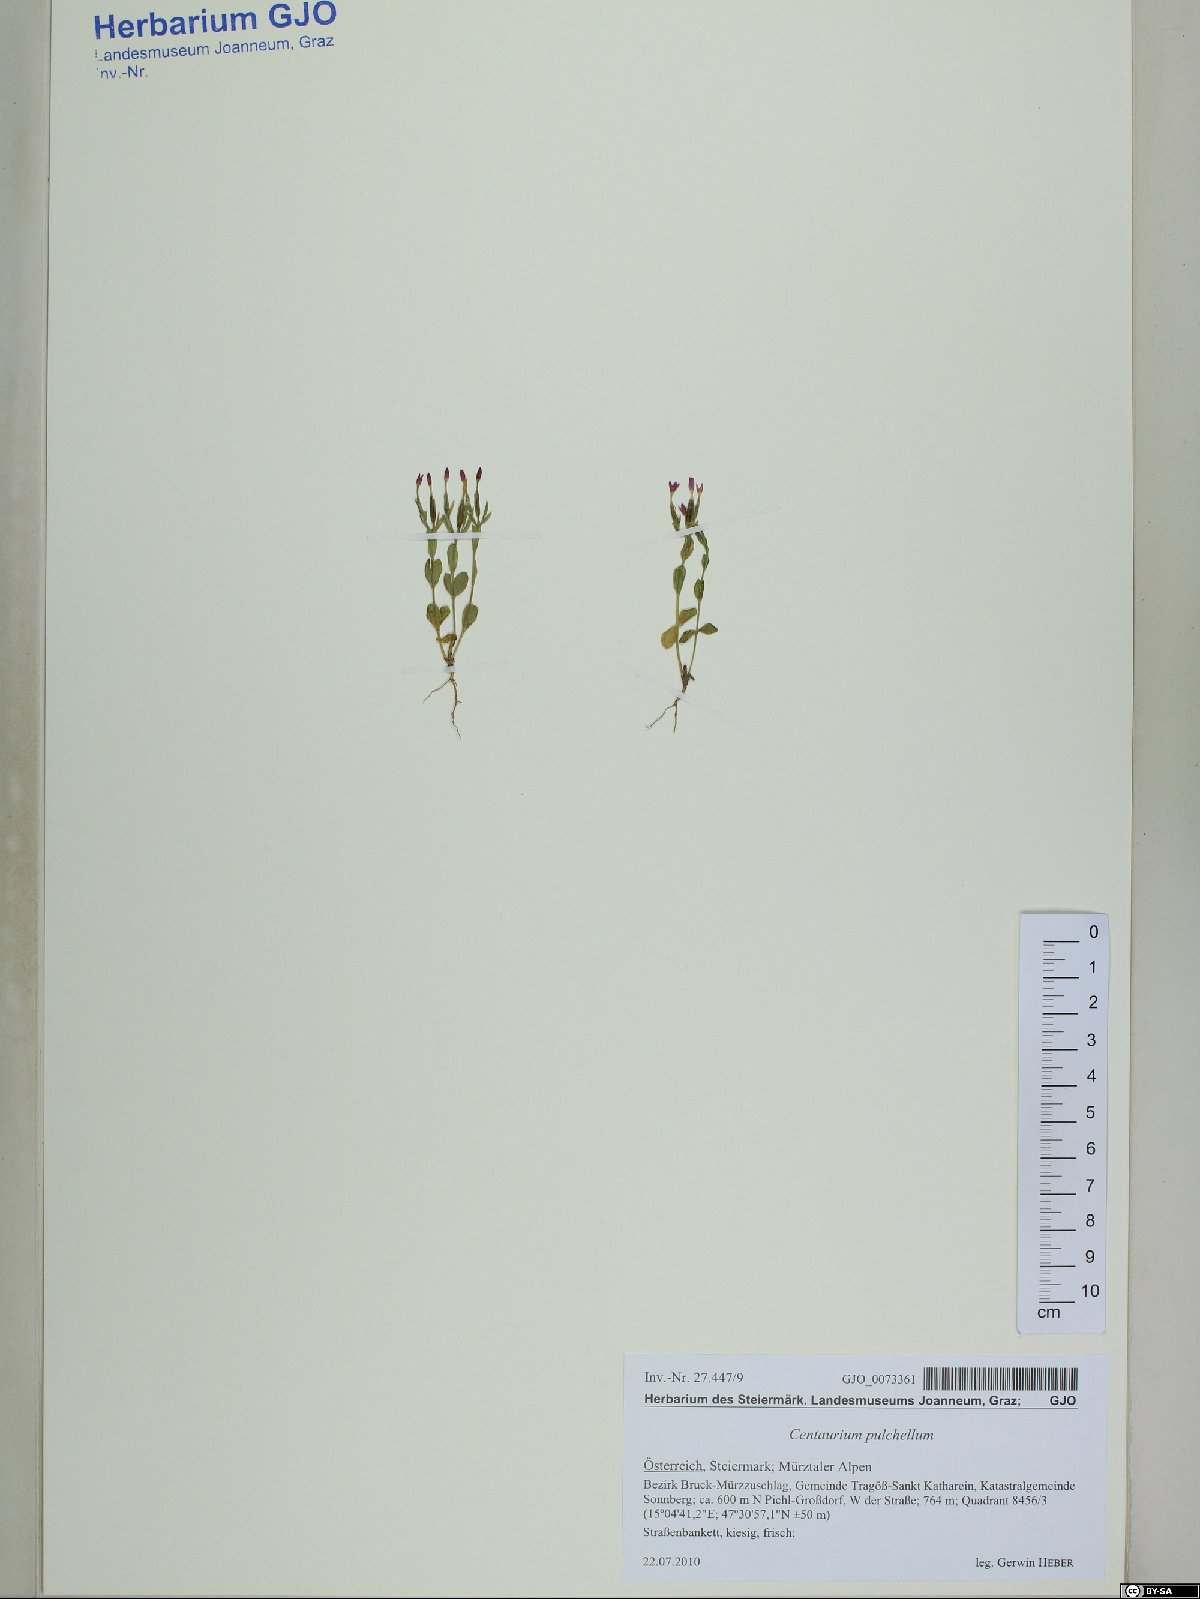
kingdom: Plantae
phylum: Tracheophyta
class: Magnoliopsida
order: Gentianales
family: Gentianaceae
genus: Centaurium
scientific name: Centaurium pulchellum
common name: Lesser centaury
